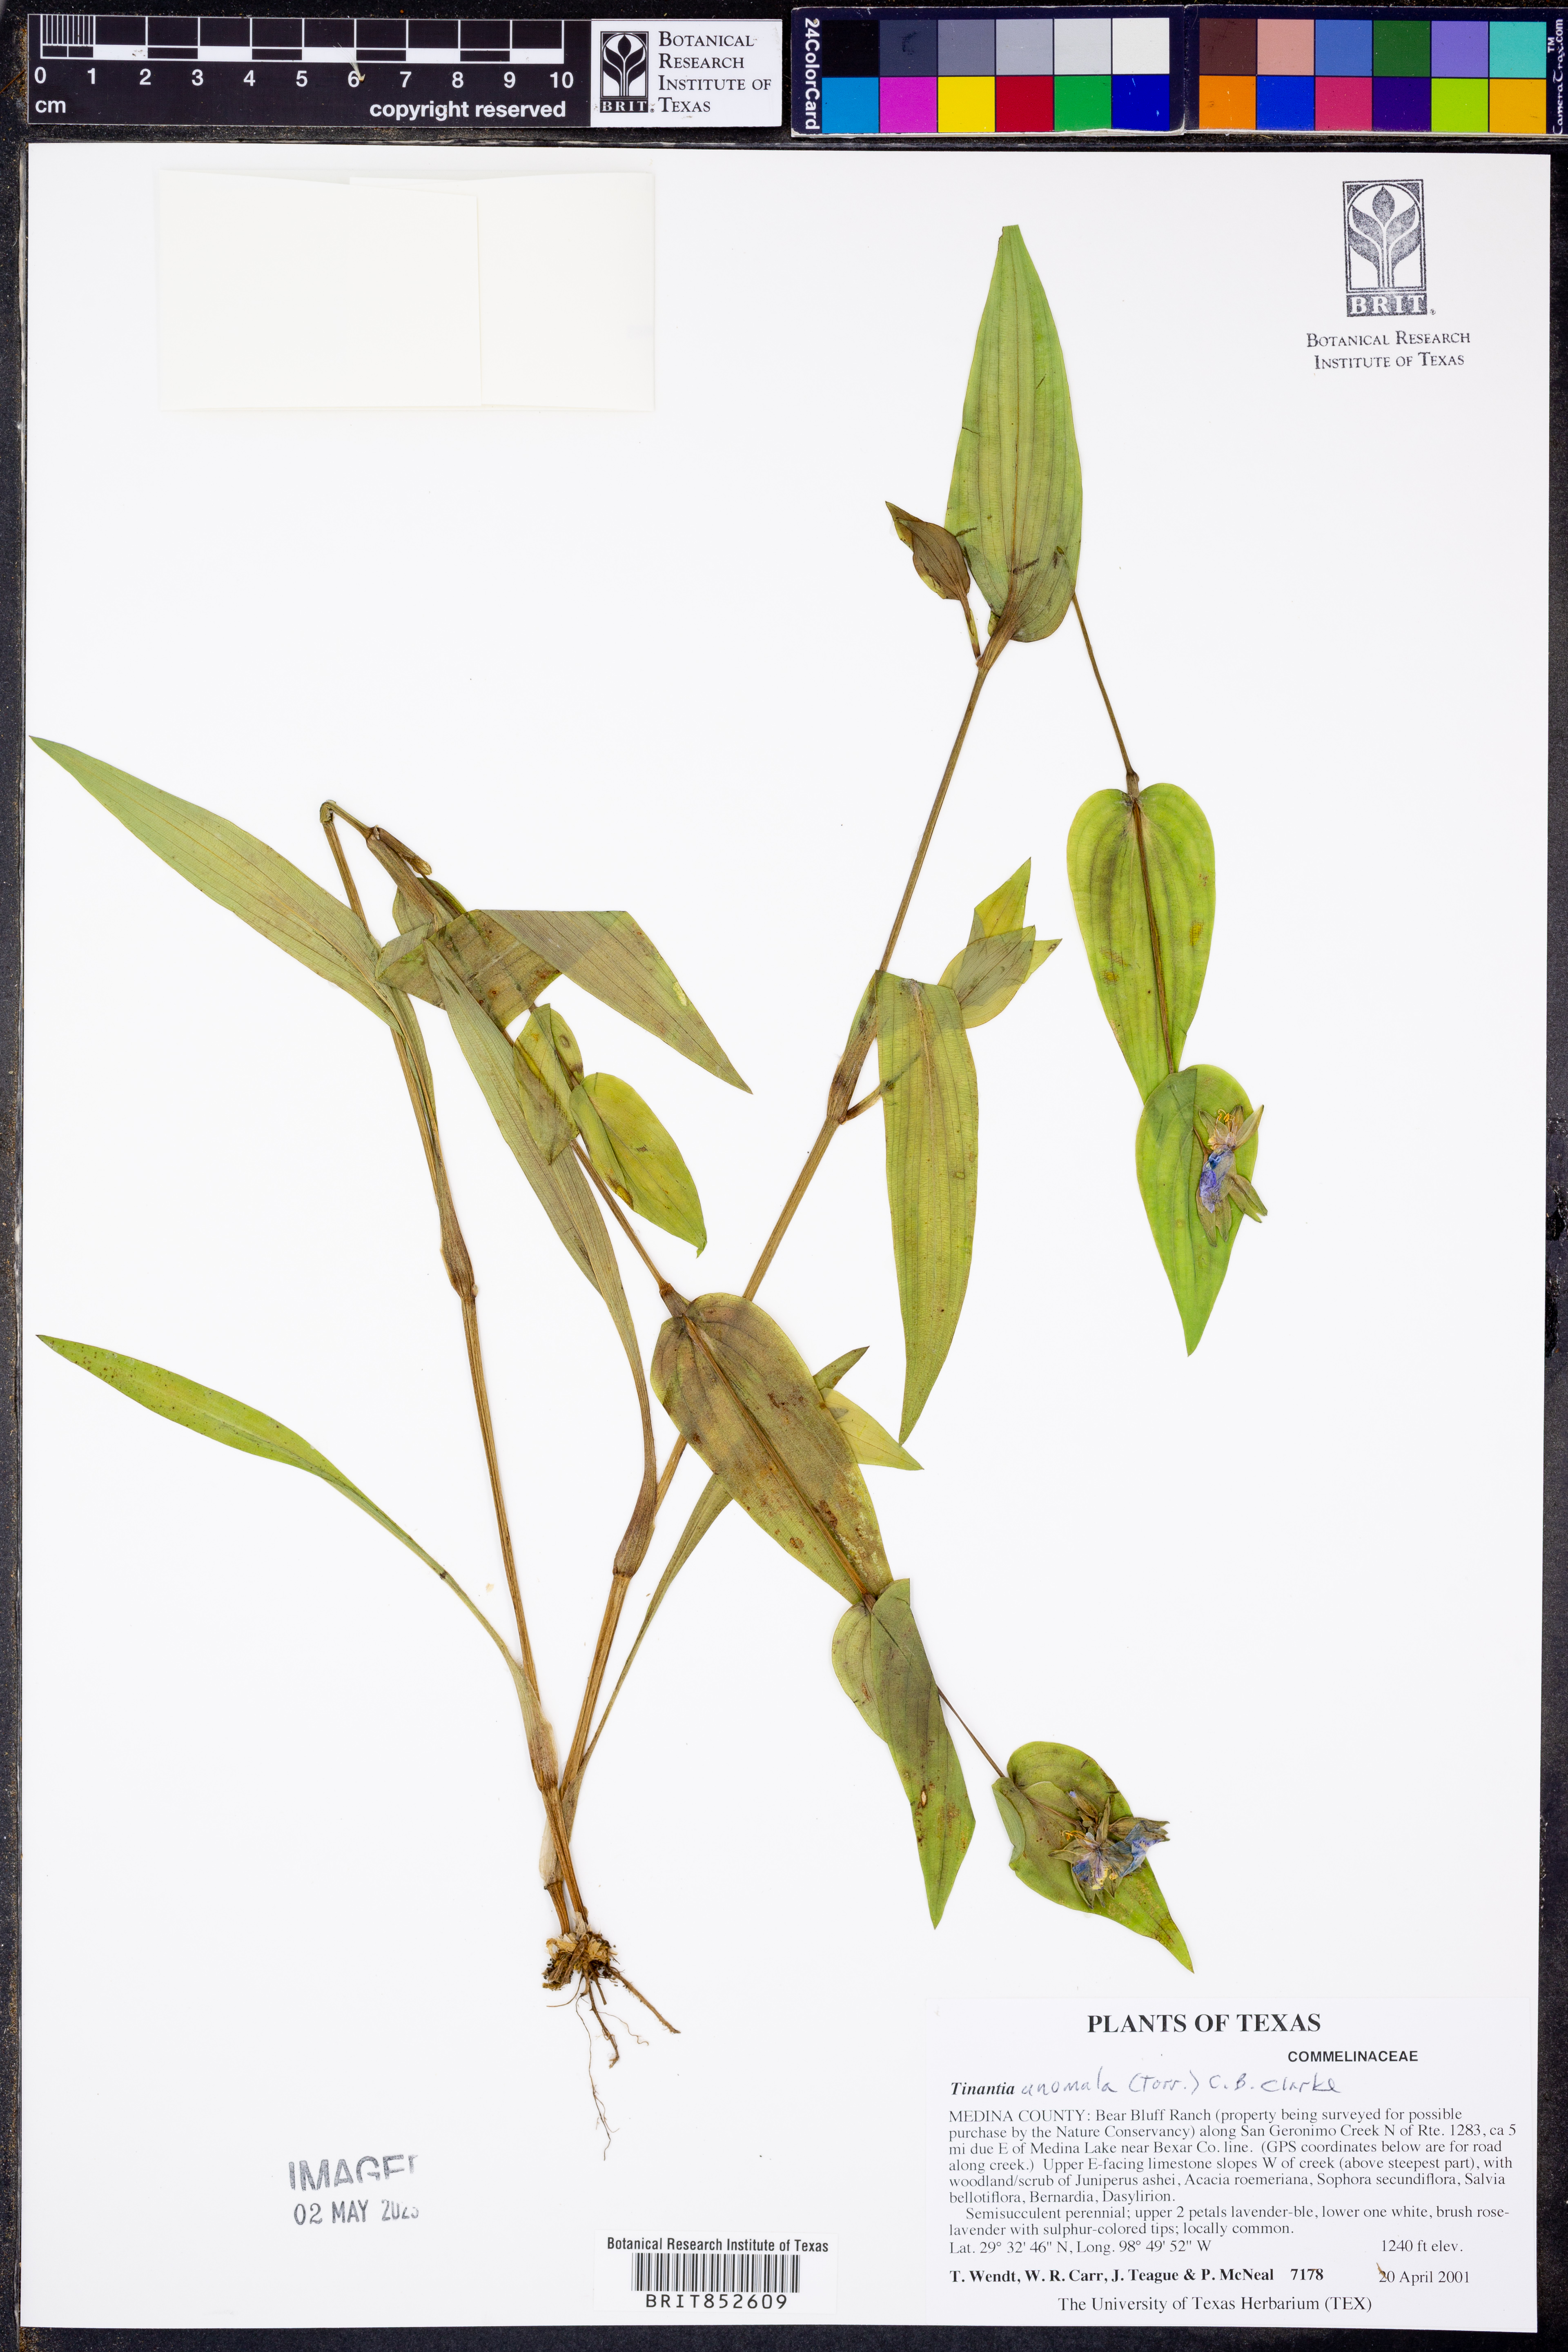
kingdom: Plantae
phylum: Tracheophyta
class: Liliopsida
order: Commelinales
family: Commelinaceae
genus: Tinantia
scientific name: Tinantia anomala
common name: False dayflower
